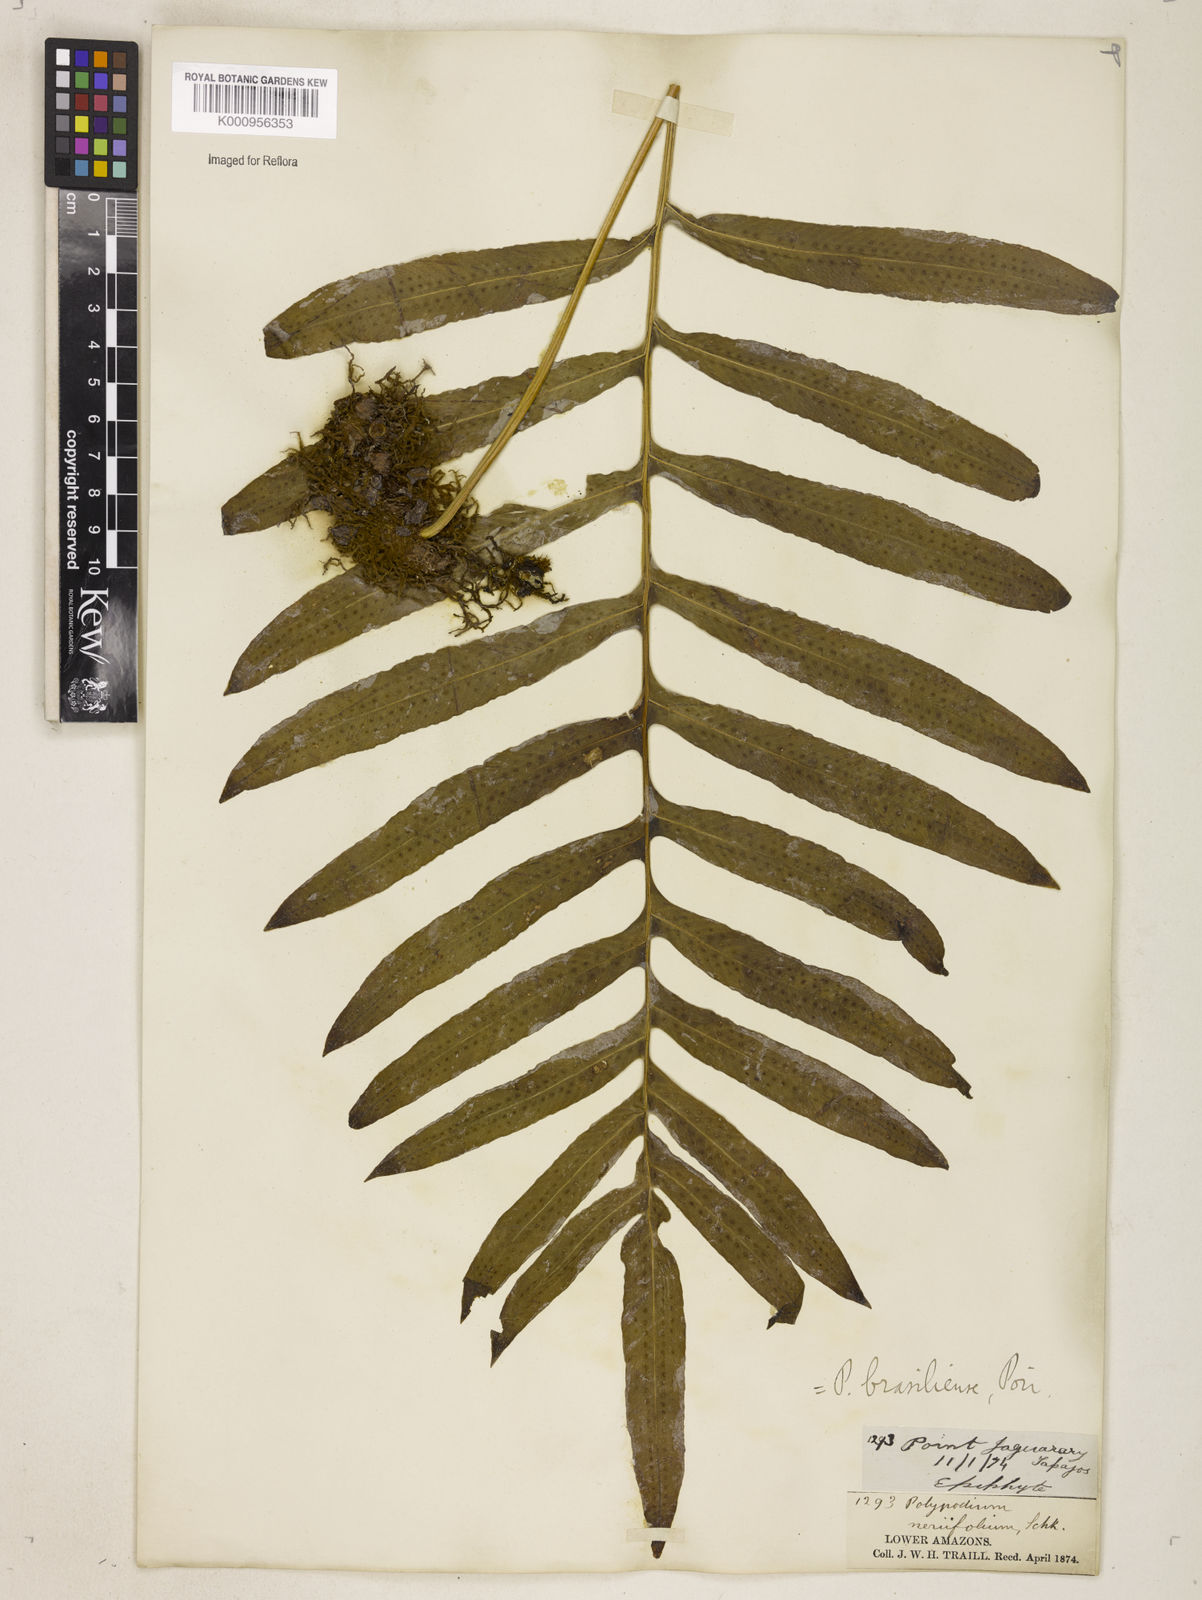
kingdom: Plantae
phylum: Tracheophyta
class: Polypodiopsida
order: Polypodiales
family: Polypodiaceae
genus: Serpocaulon
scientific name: Serpocaulon triseriale
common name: Angle-vein fern
